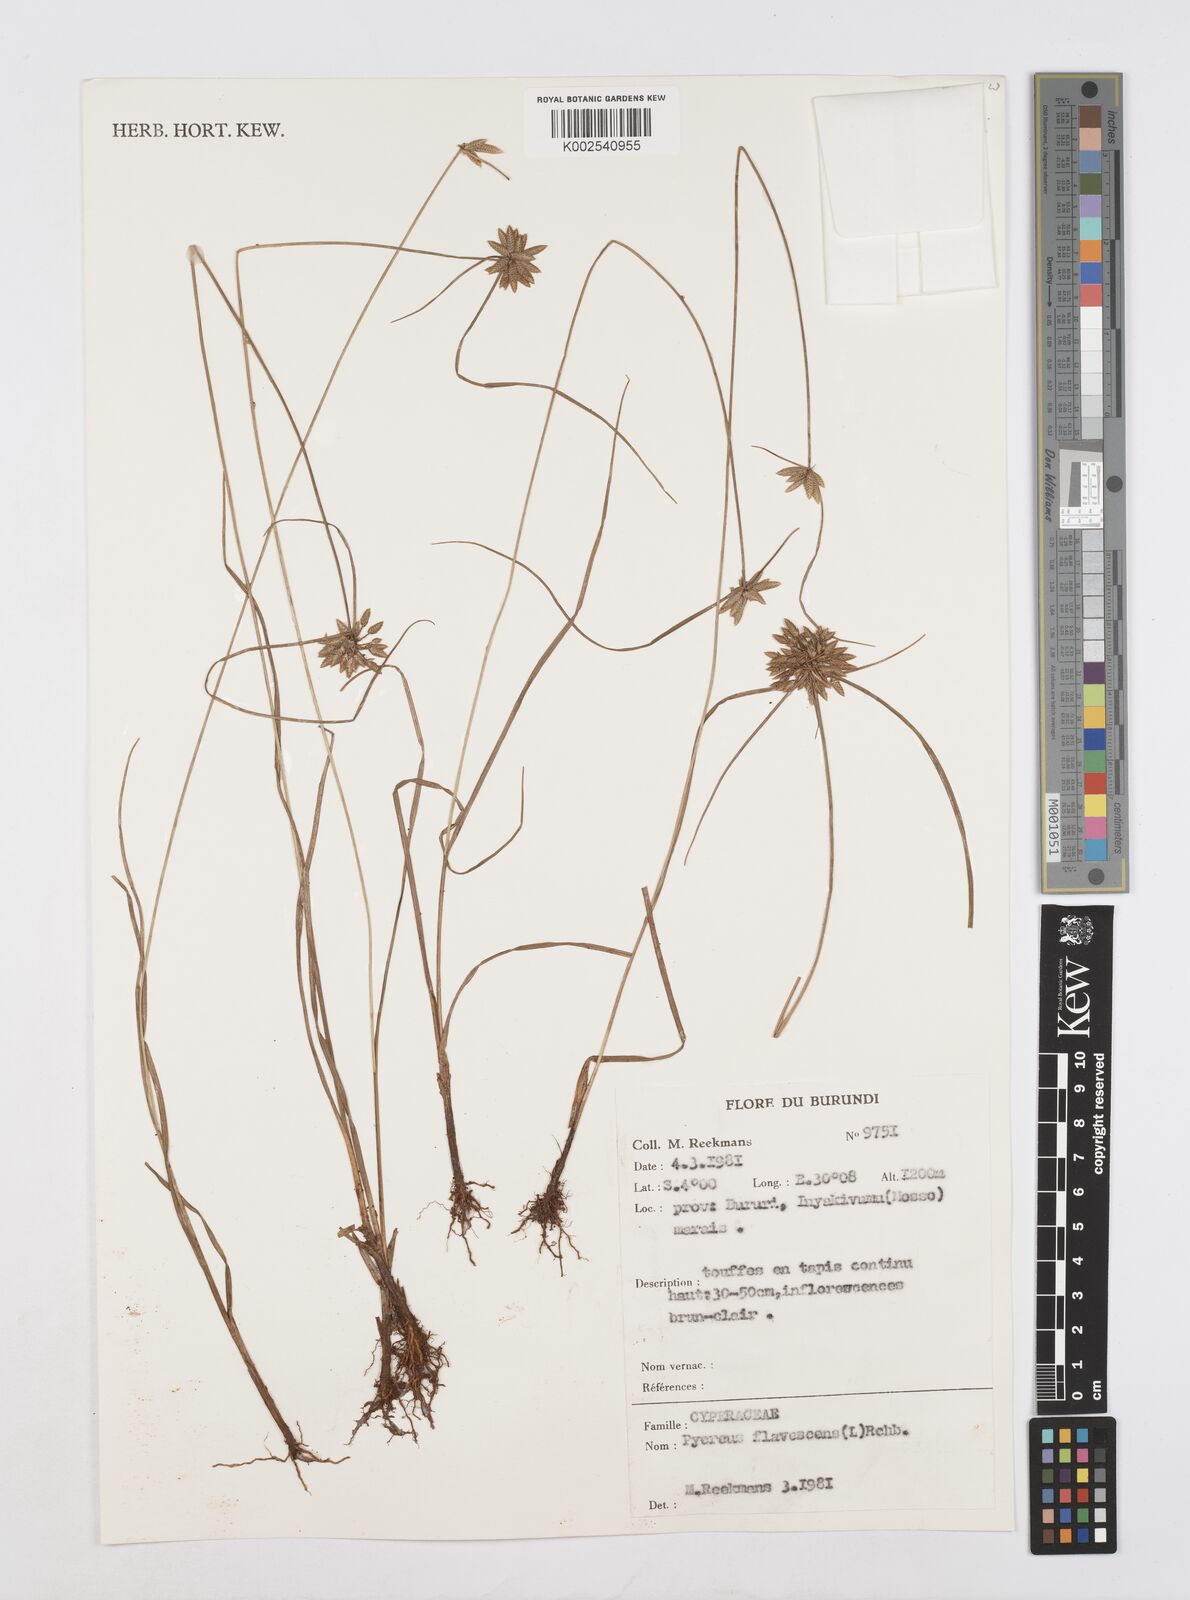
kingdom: Plantae
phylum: Tracheophyta
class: Liliopsida
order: Poales
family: Cyperaceae
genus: Cyperus
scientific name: Cyperus flavescens
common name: Yellow galingale
